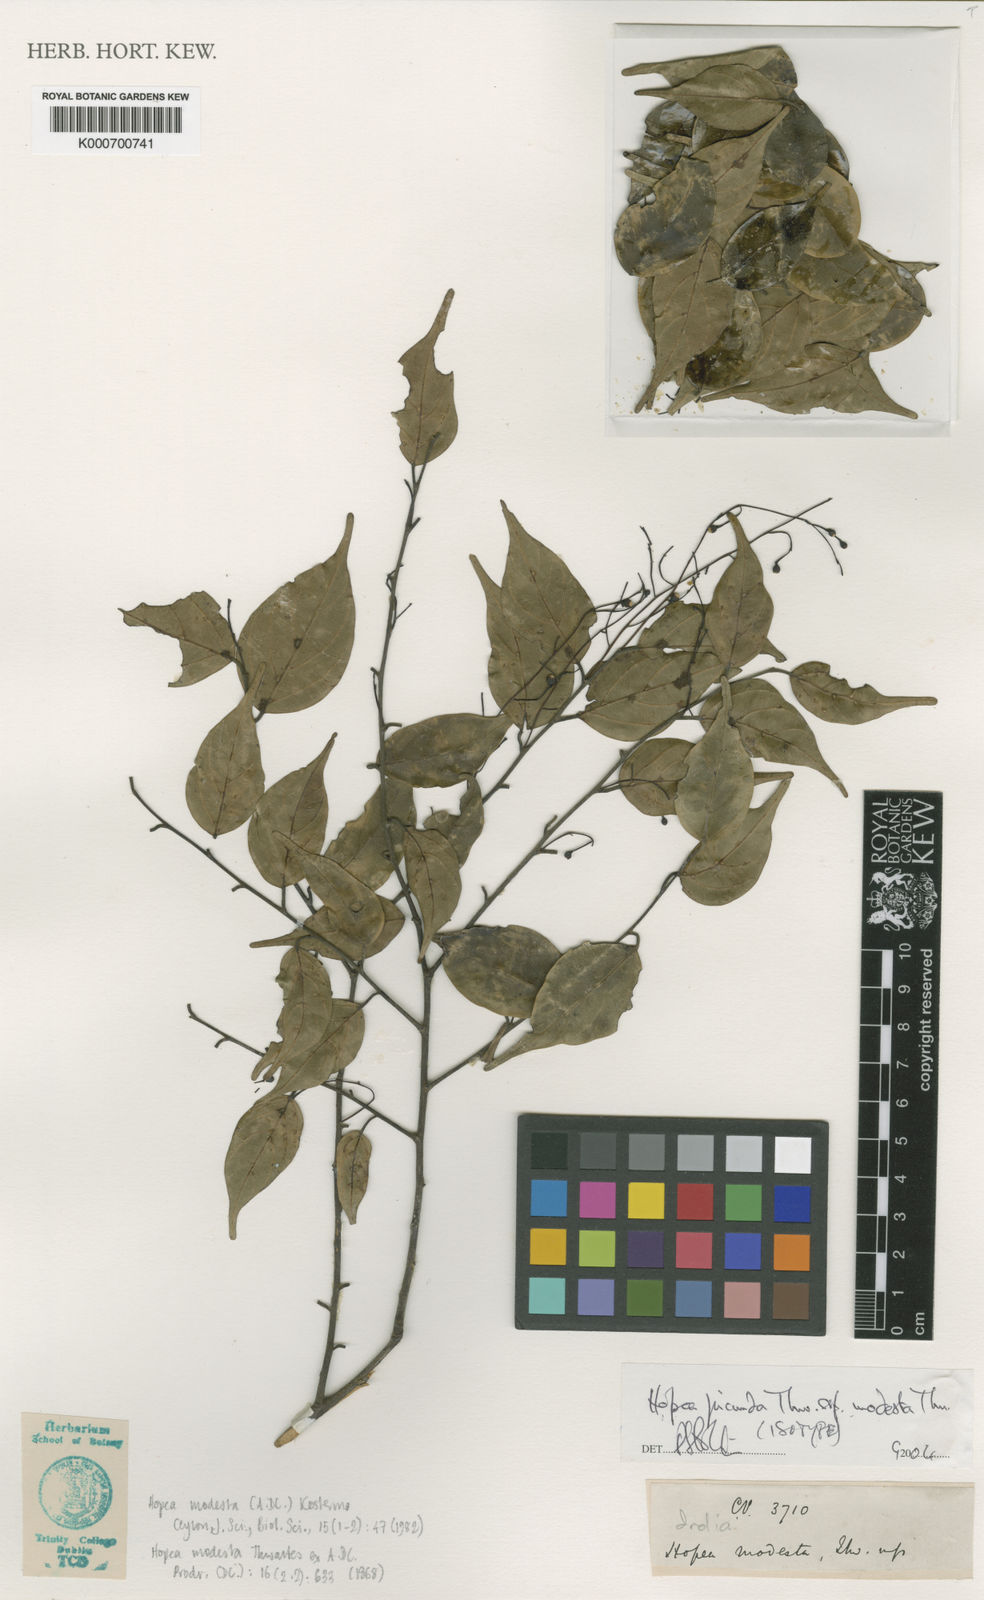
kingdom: Plantae
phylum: Tracheophyta
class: Magnoliopsida
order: Malvales
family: Dipterocarpaceae
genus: Hopea
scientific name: Hopea jucunda
